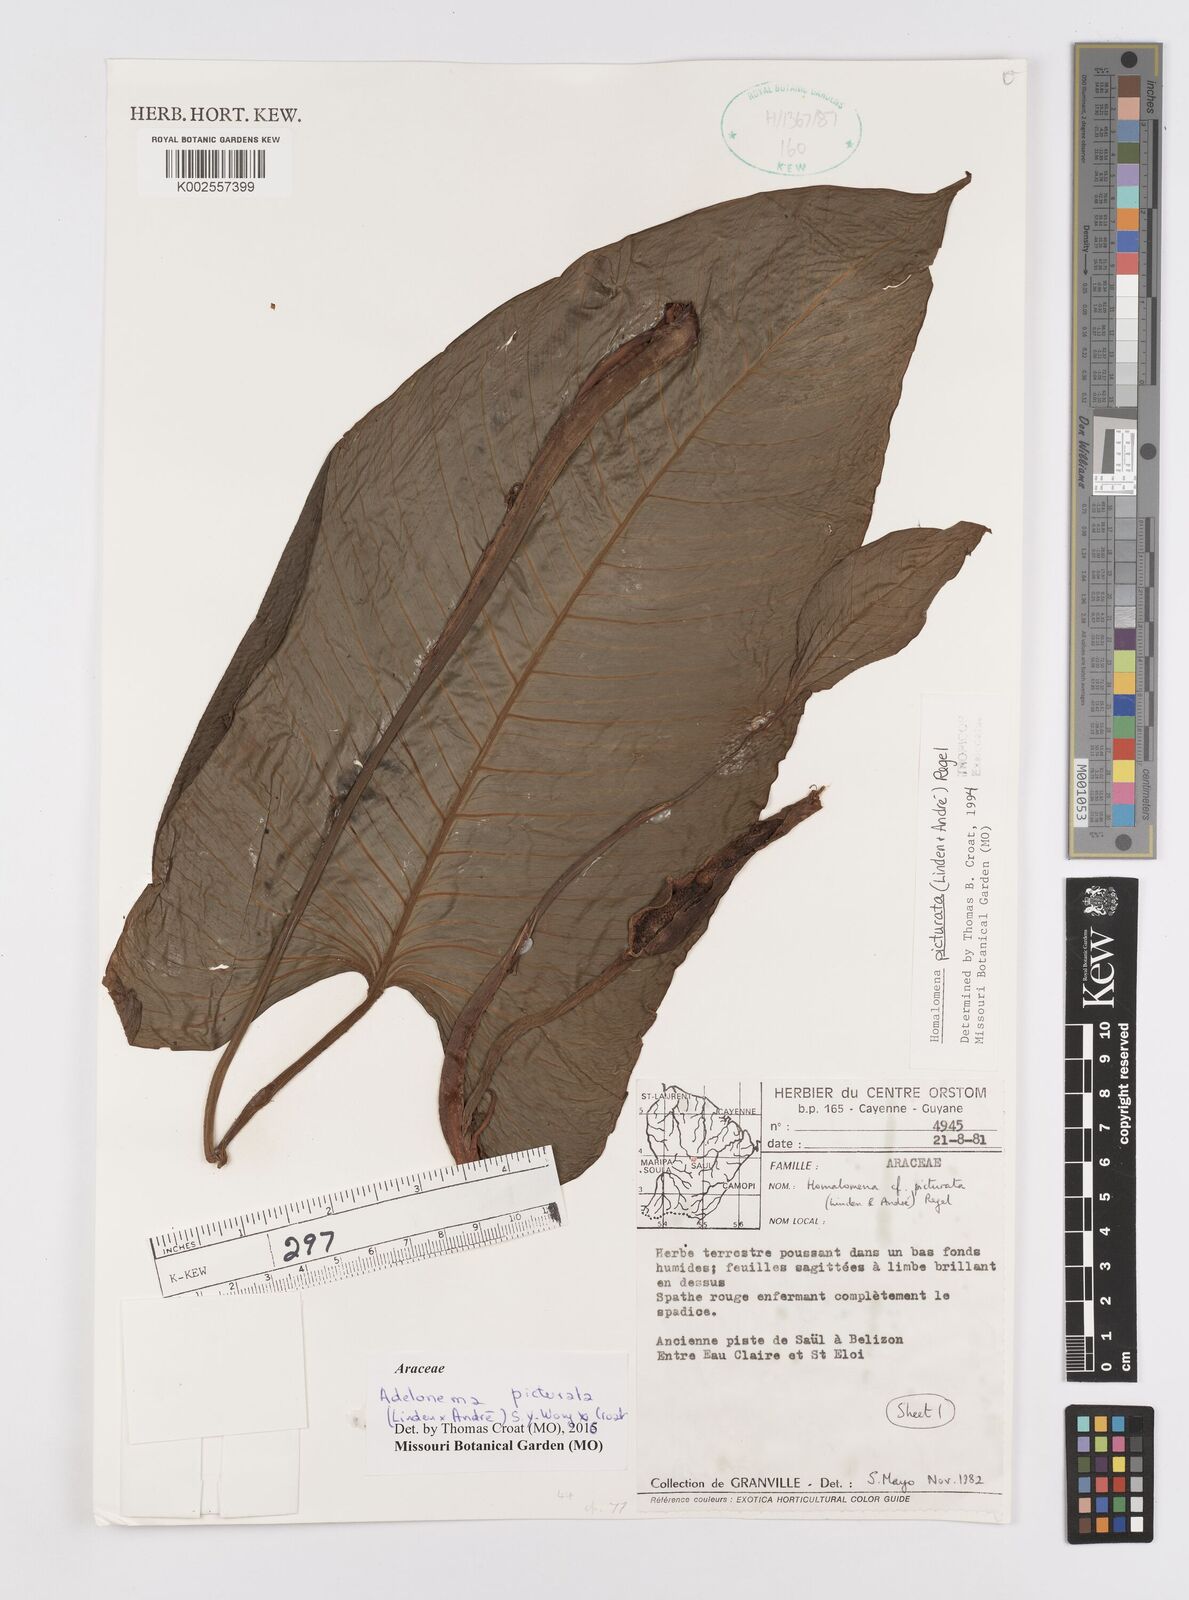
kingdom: Plantae
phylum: Tracheophyta
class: Liliopsida
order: Alismatales
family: Araceae
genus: Adelonema
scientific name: Adelonema picturatum
